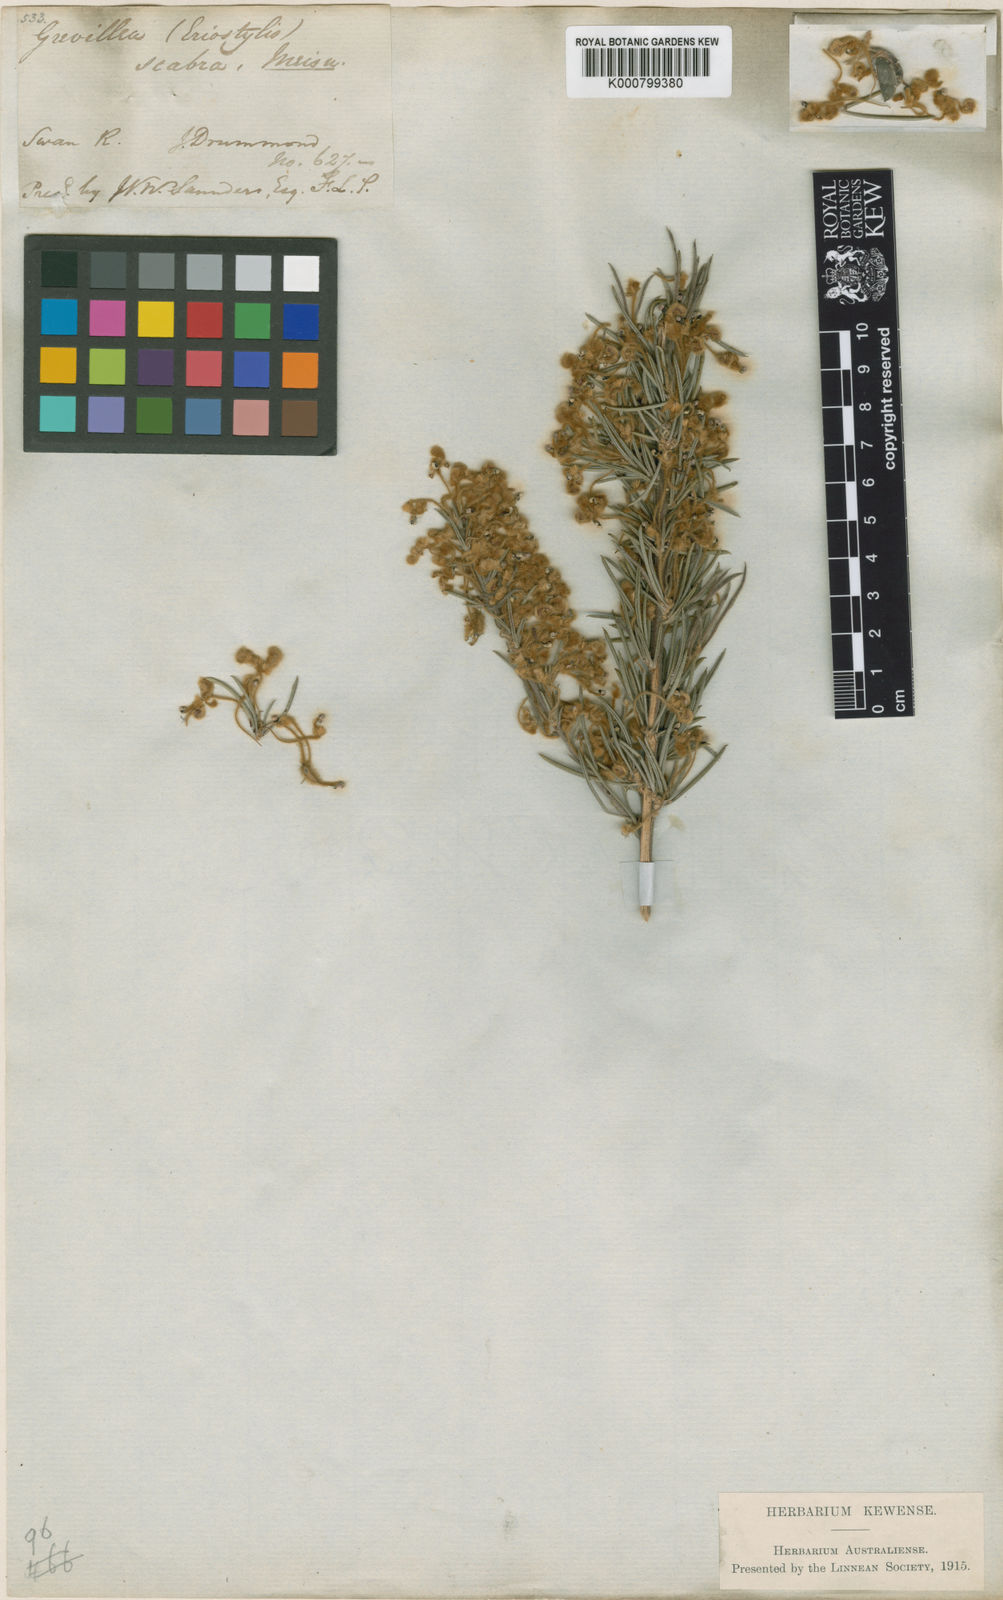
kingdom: Plantae
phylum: Tracheophyta
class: Magnoliopsida
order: Proteales
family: Proteaceae
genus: Grevillea
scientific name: Grevillea scabra
